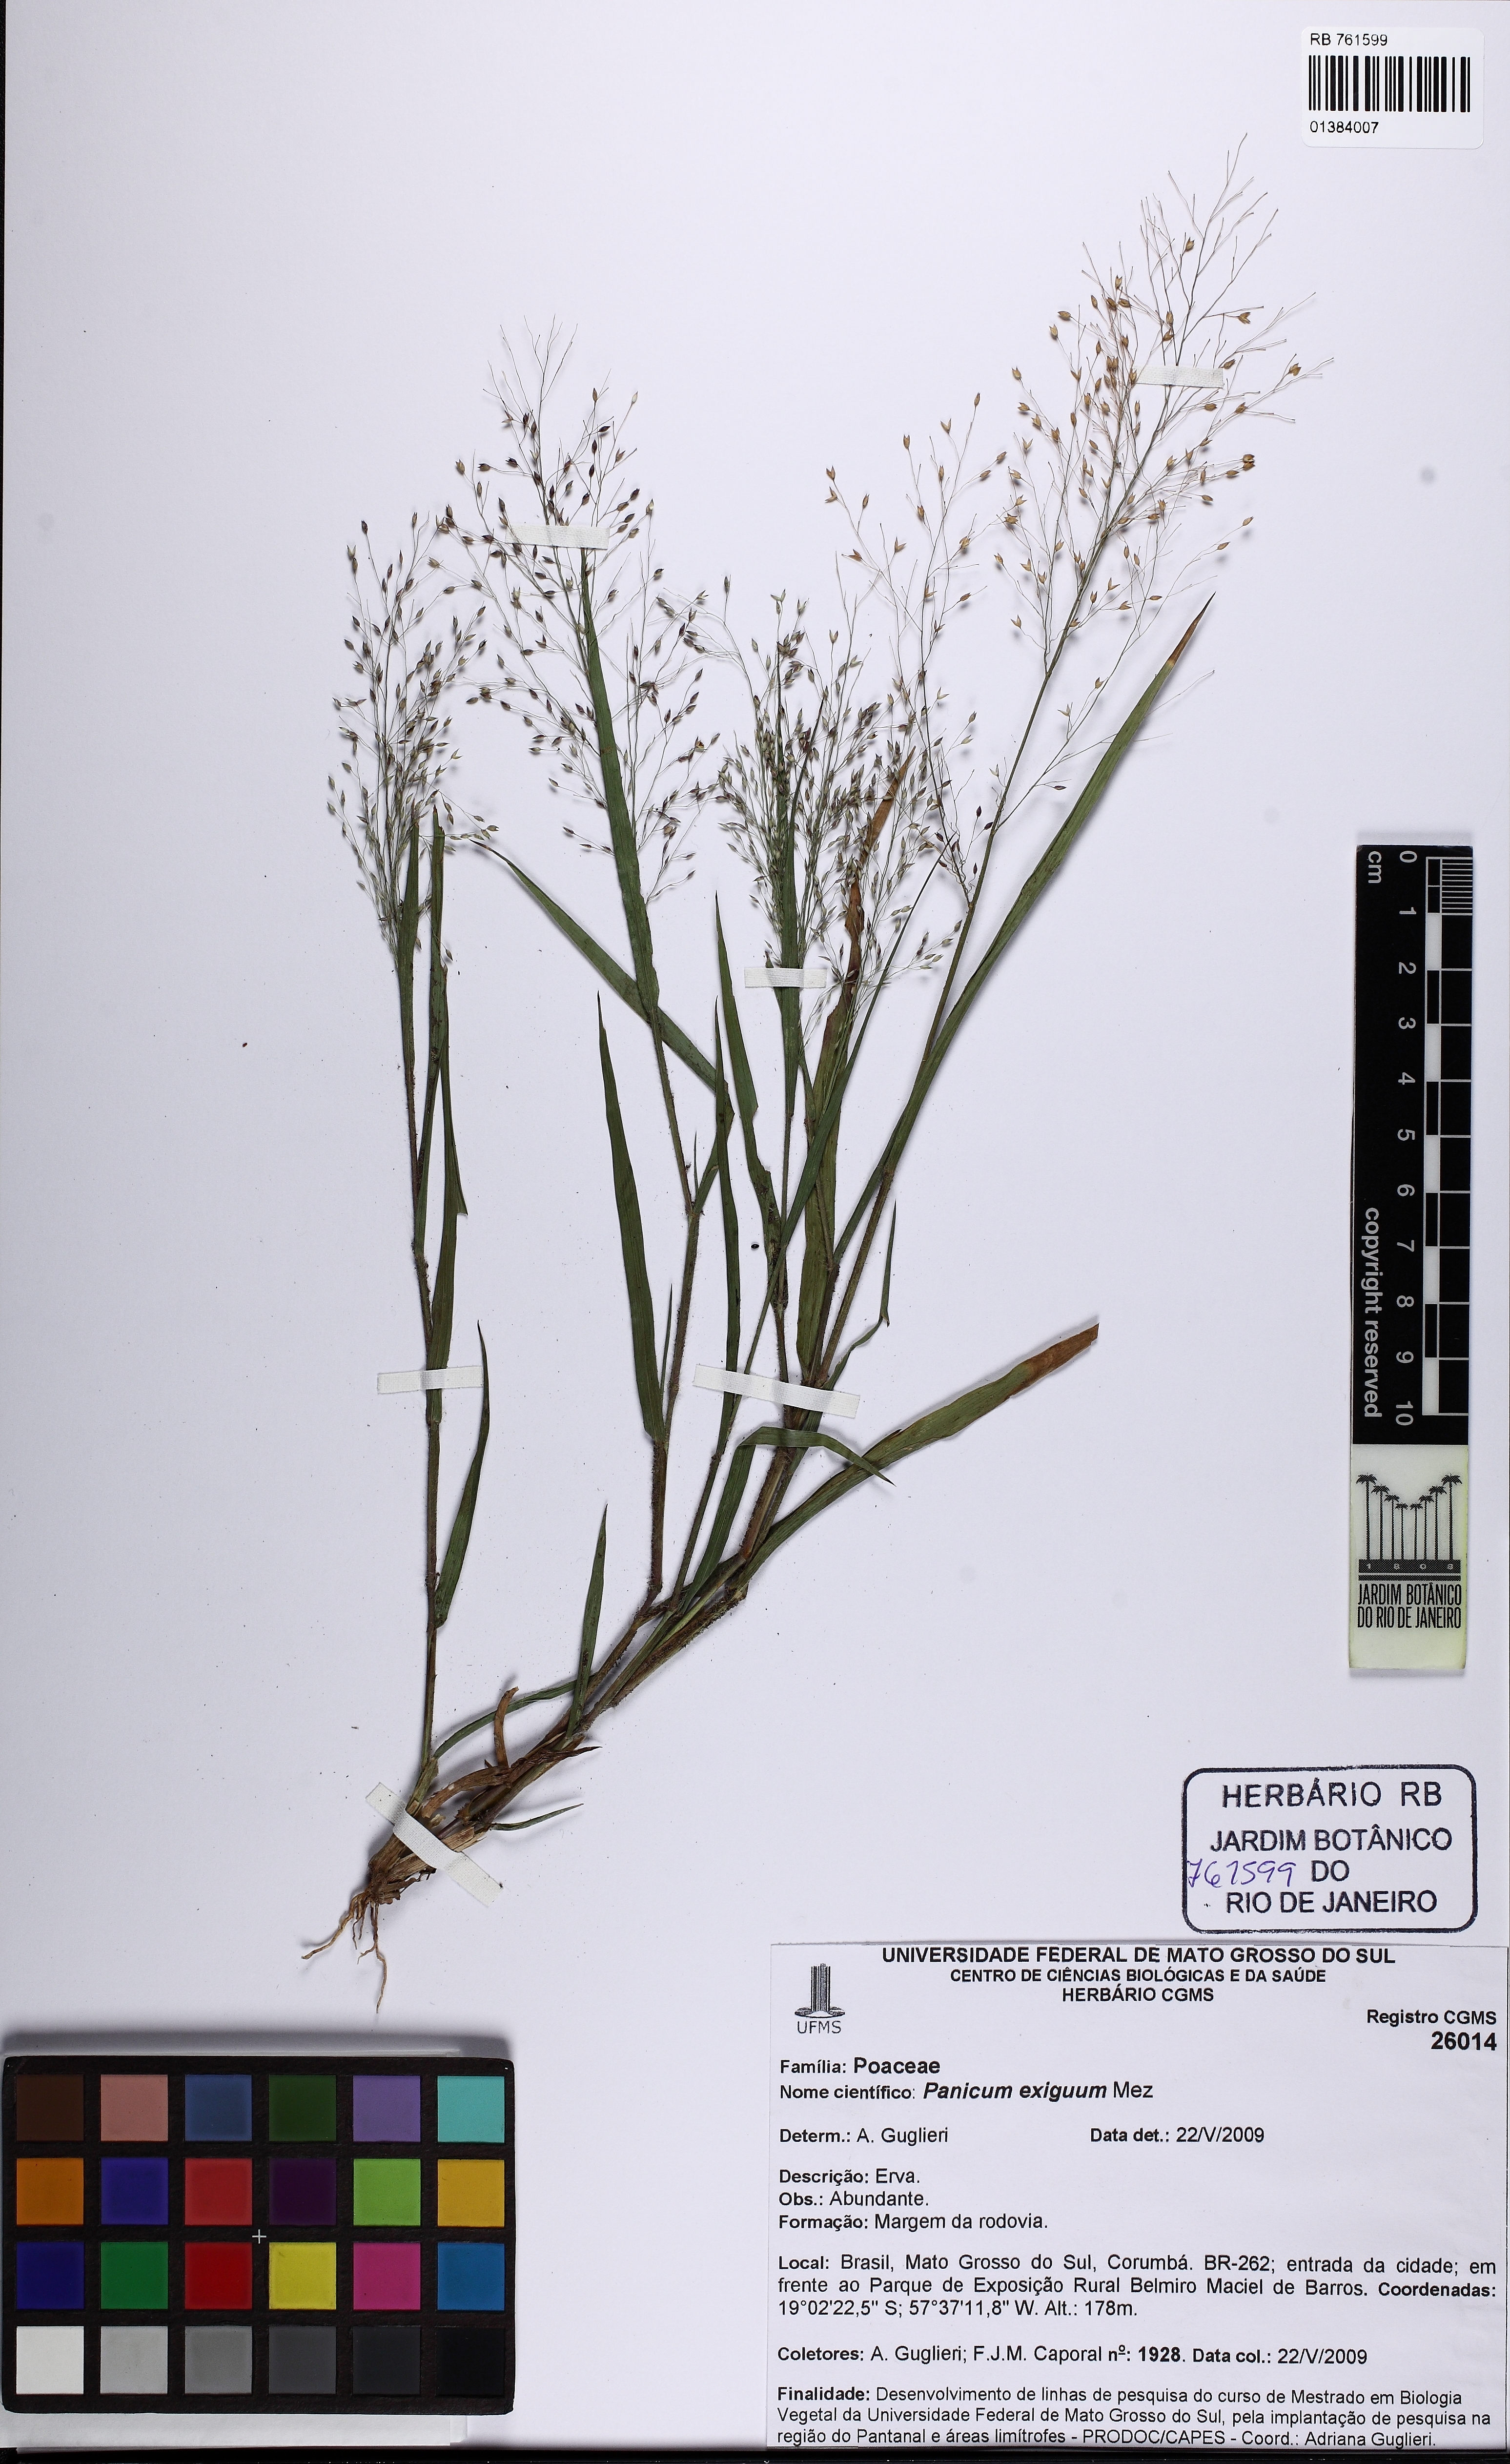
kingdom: Plantae
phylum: Tracheophyta
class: Liliopsida
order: Poales
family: Poaceae
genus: Panicum
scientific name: Panicum exiguum
